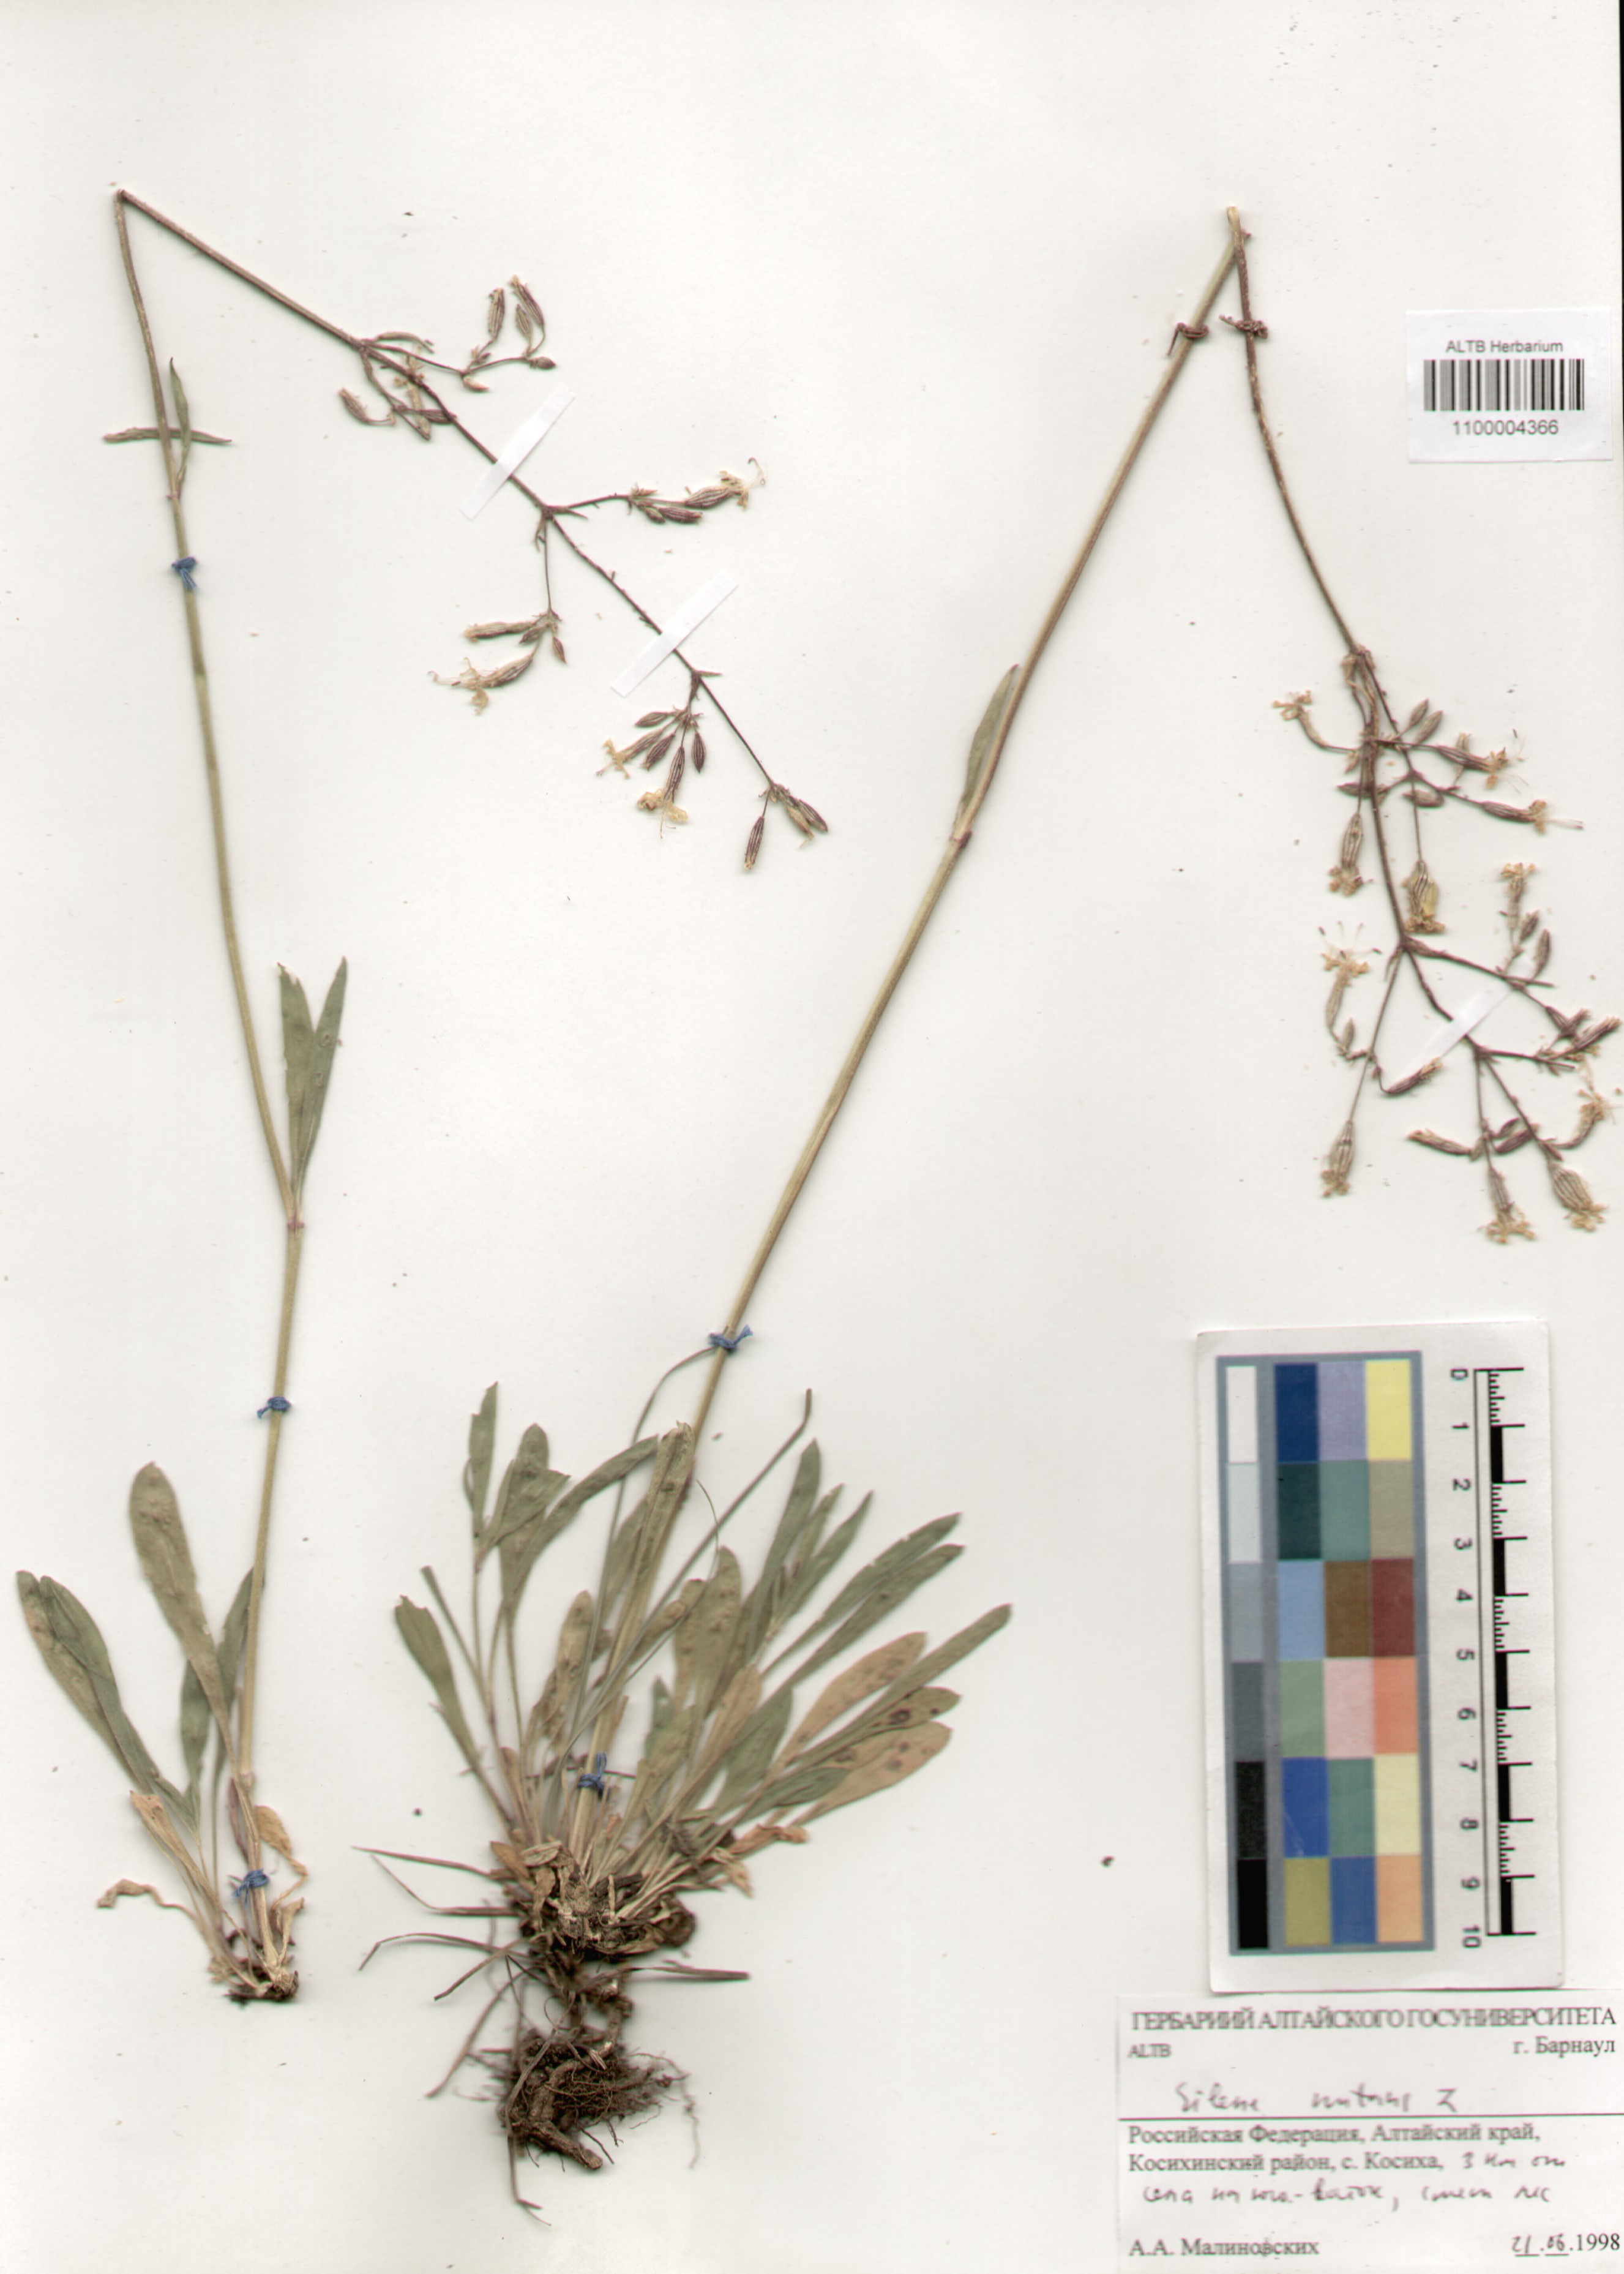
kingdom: Plantae
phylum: Tracheophyta
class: Magnoliopsida
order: Caryophyllales
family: Caryophyllaceae
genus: Silene
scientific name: Silene nutans
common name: Nottingham catchfly
